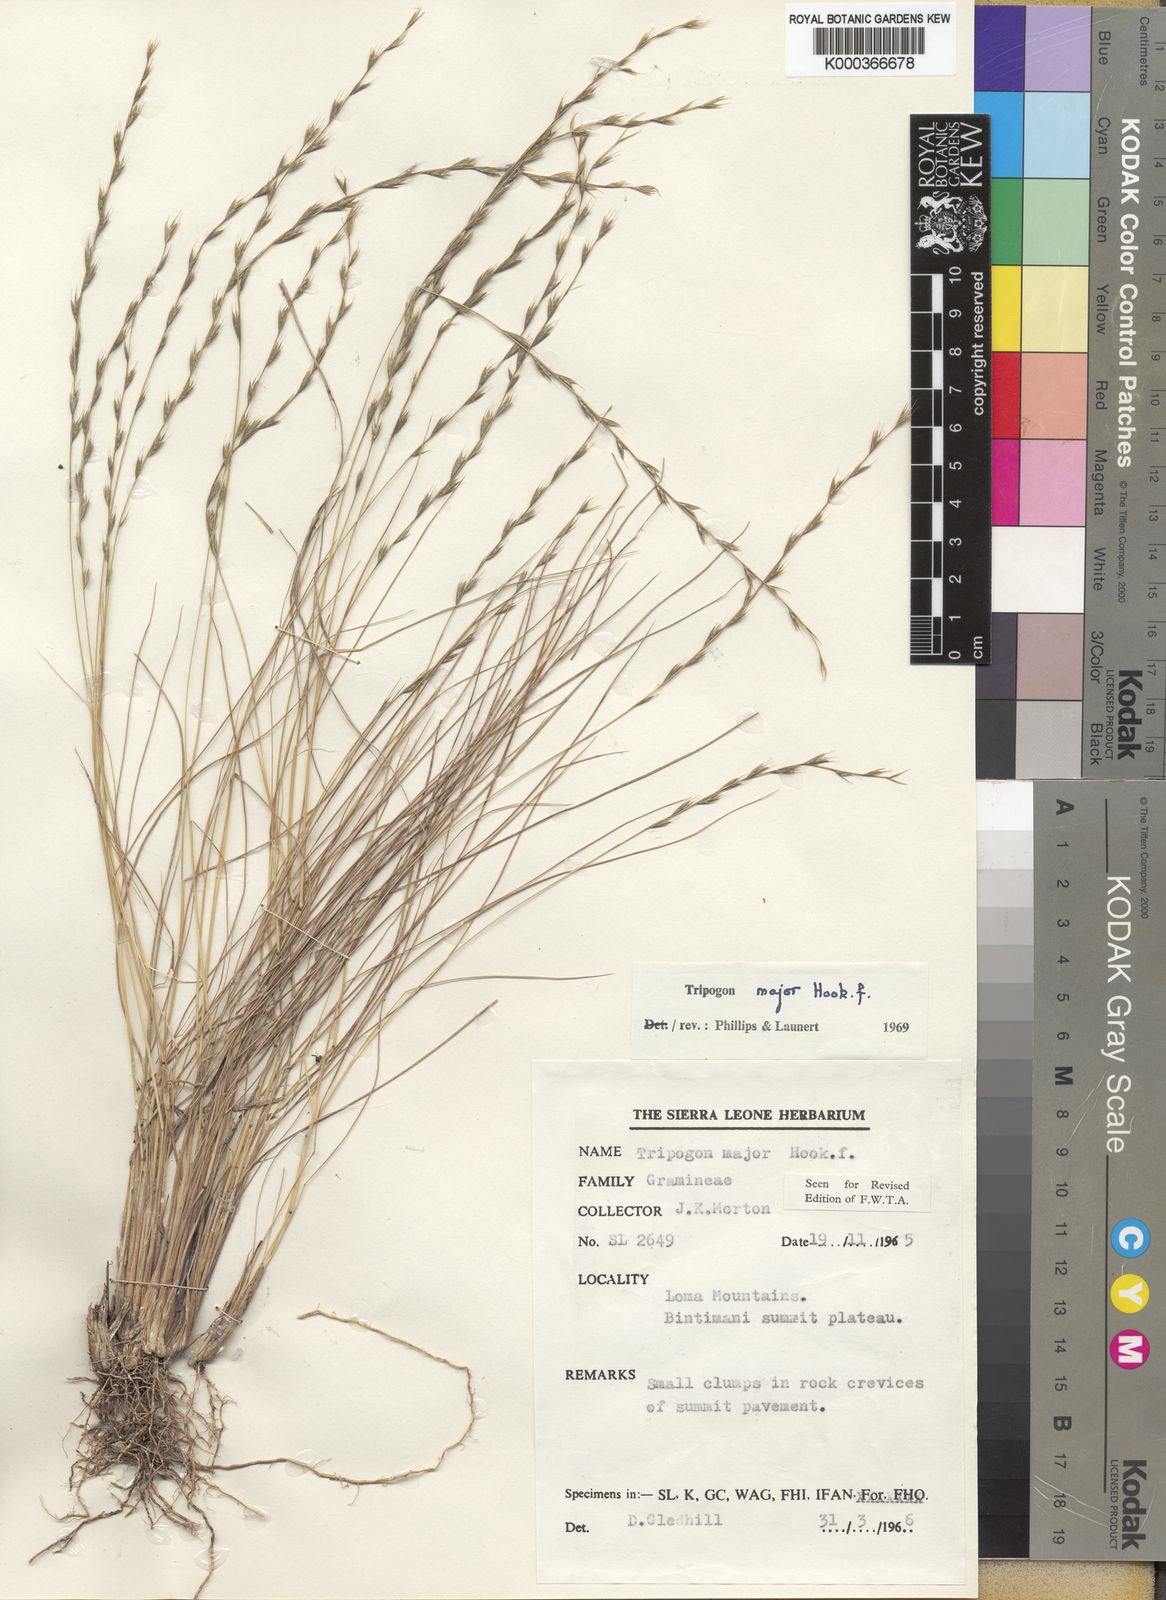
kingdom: Plantae
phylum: Tracheophyta
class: Liliopsida
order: Poales
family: Poaceae
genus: Tripogon
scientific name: Tripogon major
